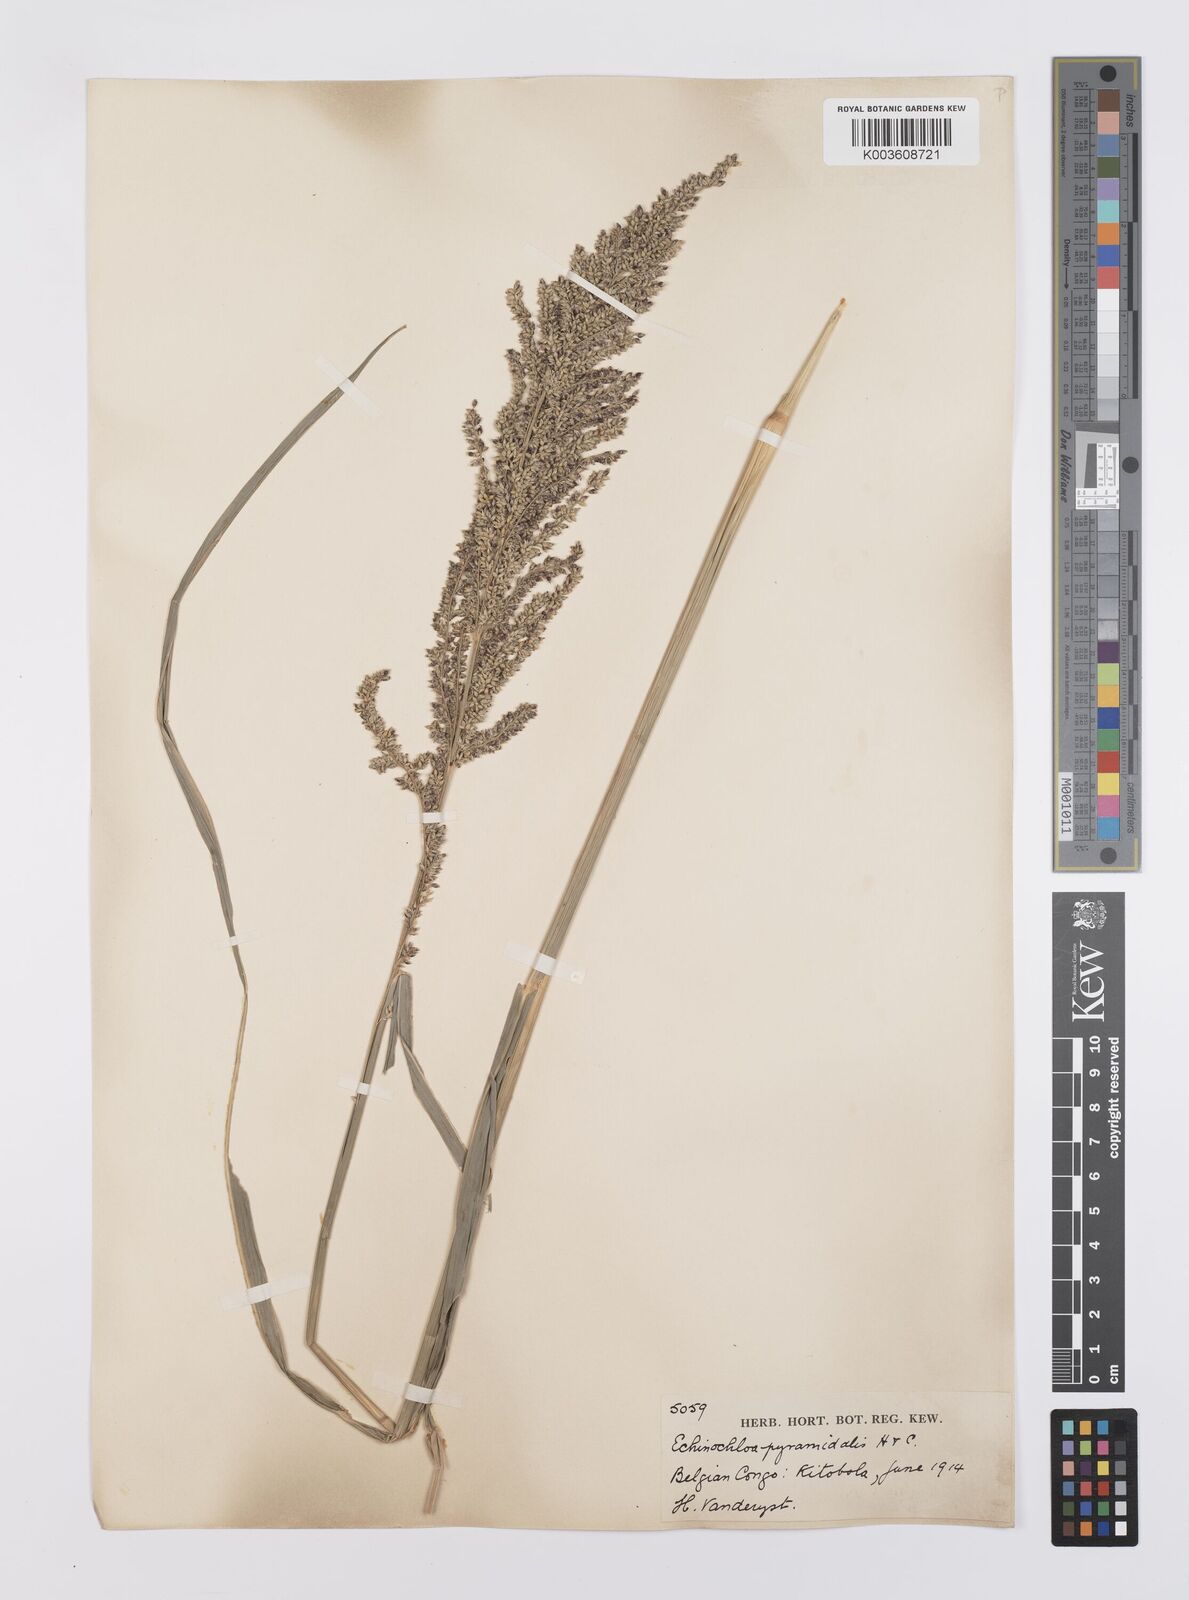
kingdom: Plantae
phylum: Tracheophyta
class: Liliopsida
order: Poales
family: Poaceae
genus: Echinochloa
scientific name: Echinochloa pyramidalis
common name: Antelope grass
